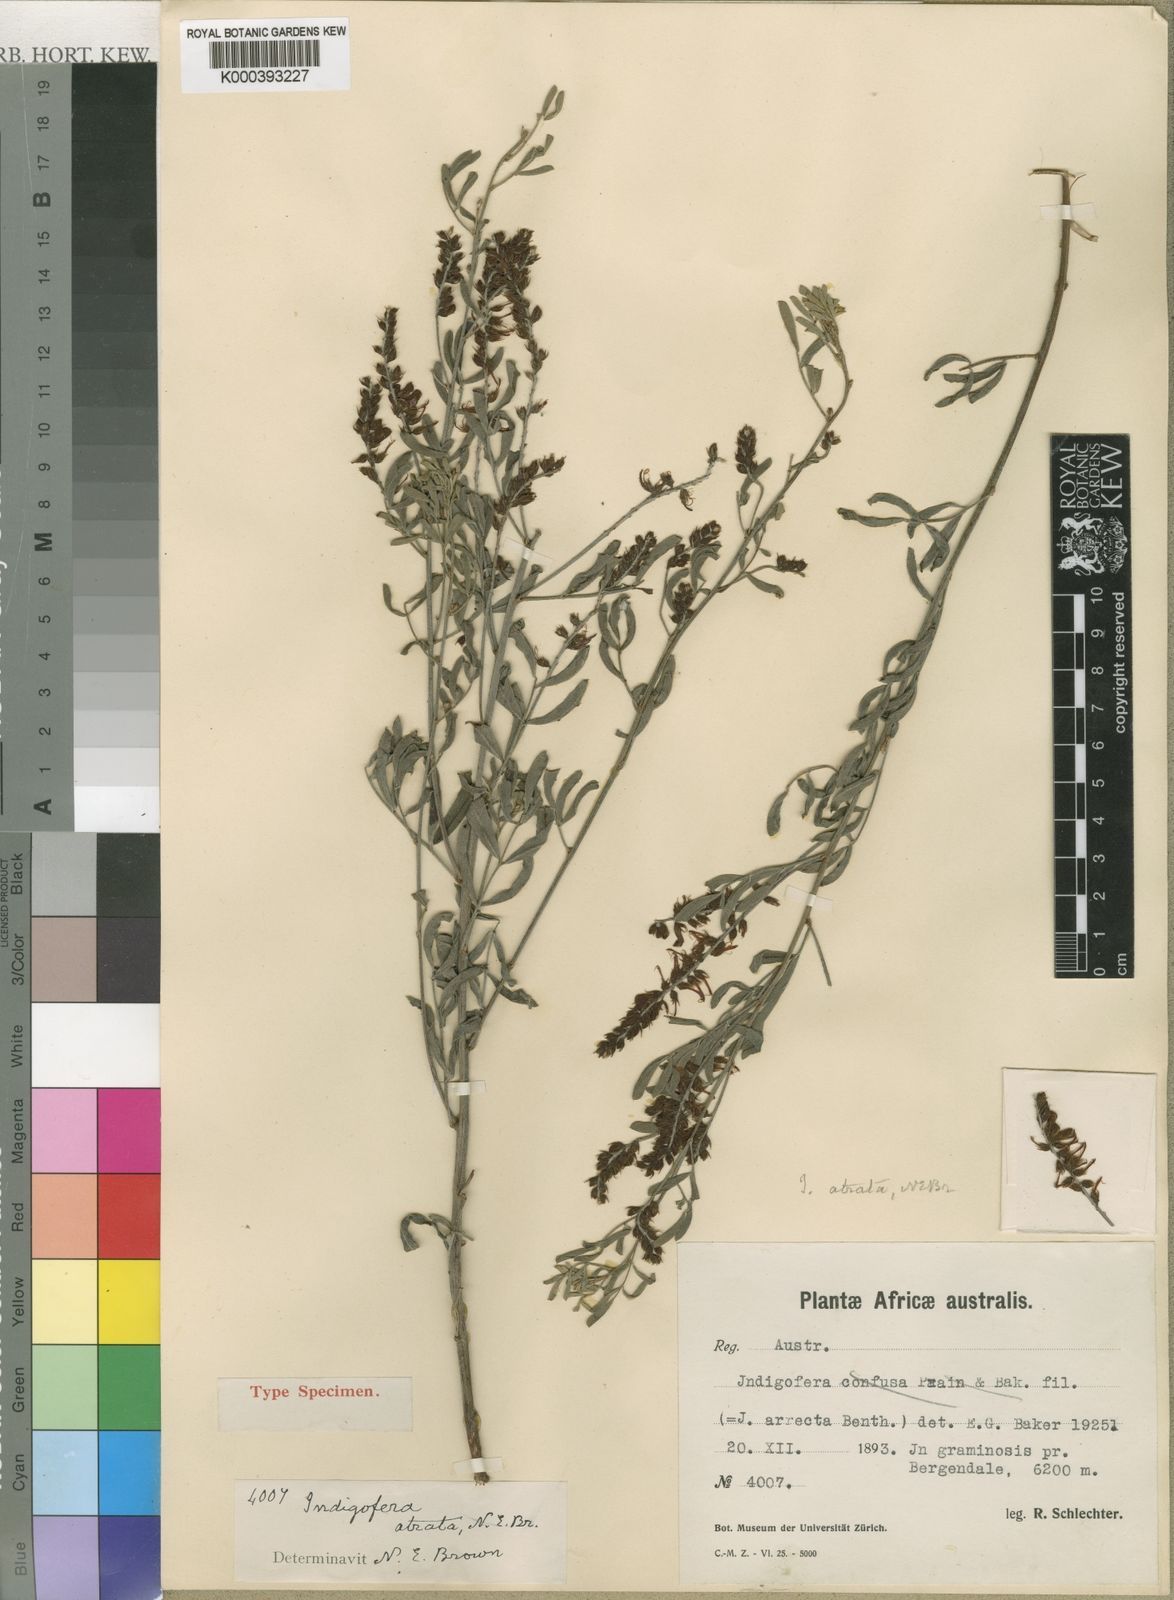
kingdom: Plantae
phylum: Tracheophyta
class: Magnoliopsida
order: Fabales
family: Fabaceae
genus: Indigofera
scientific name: Indigofera atrata
